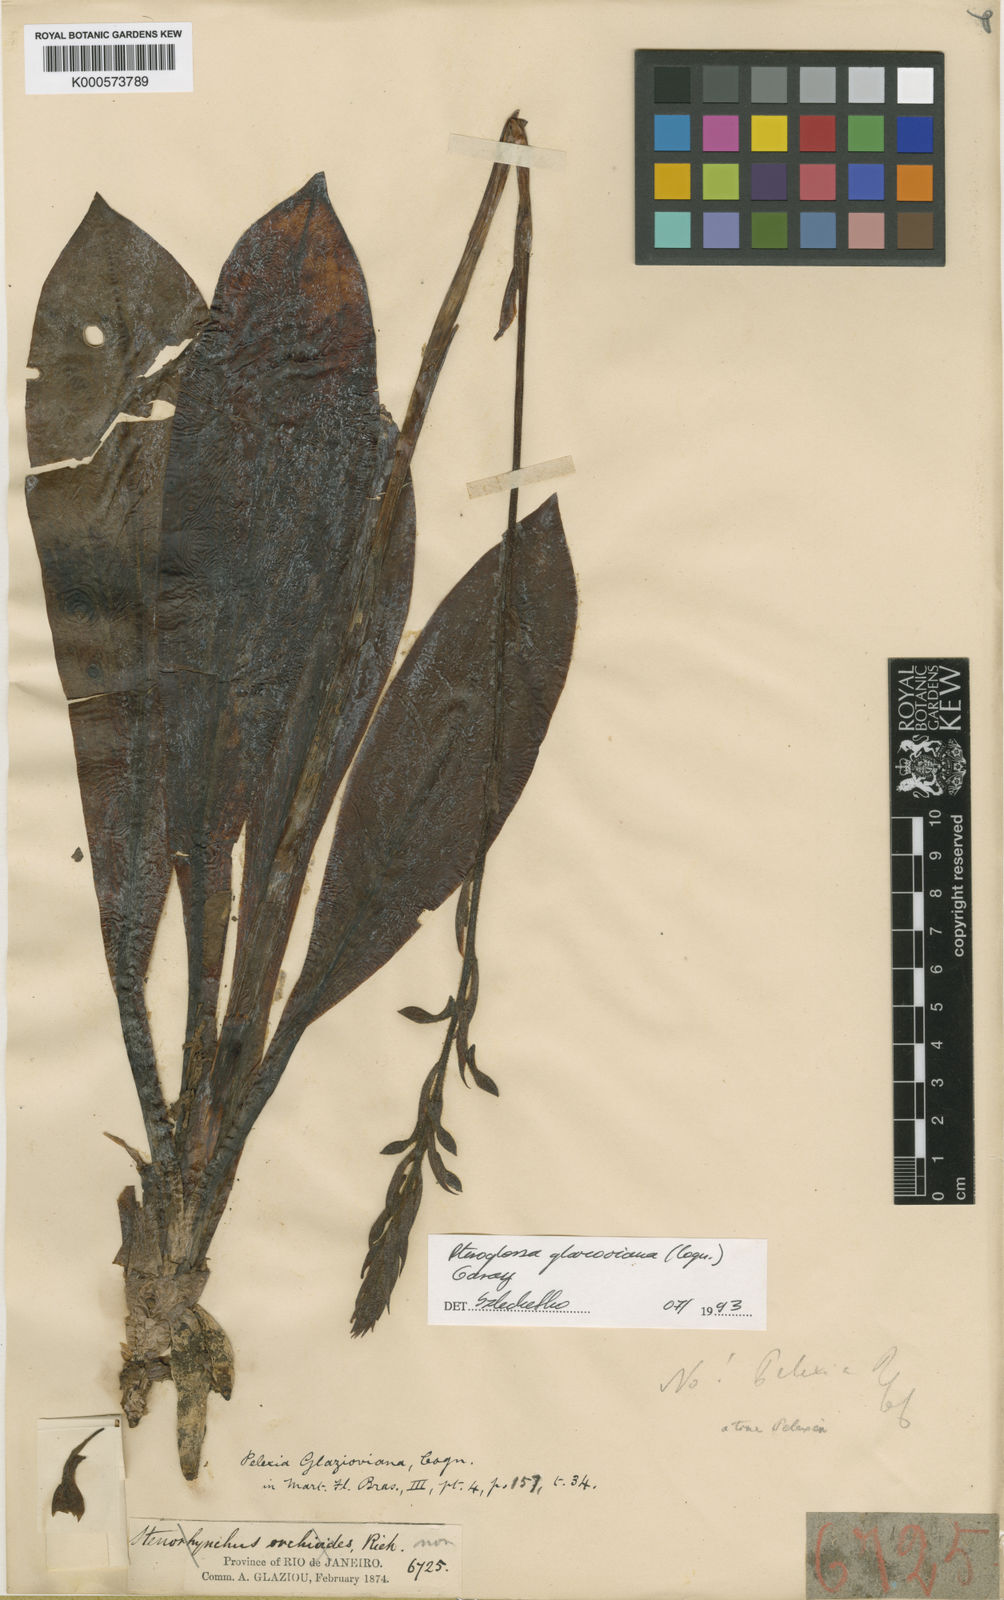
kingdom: Plantae
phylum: Tracheophyta
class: Liliopsida
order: Asparagales
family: Orchidaceae
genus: Pteroglossa
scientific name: Pteroglossa glazioviana
